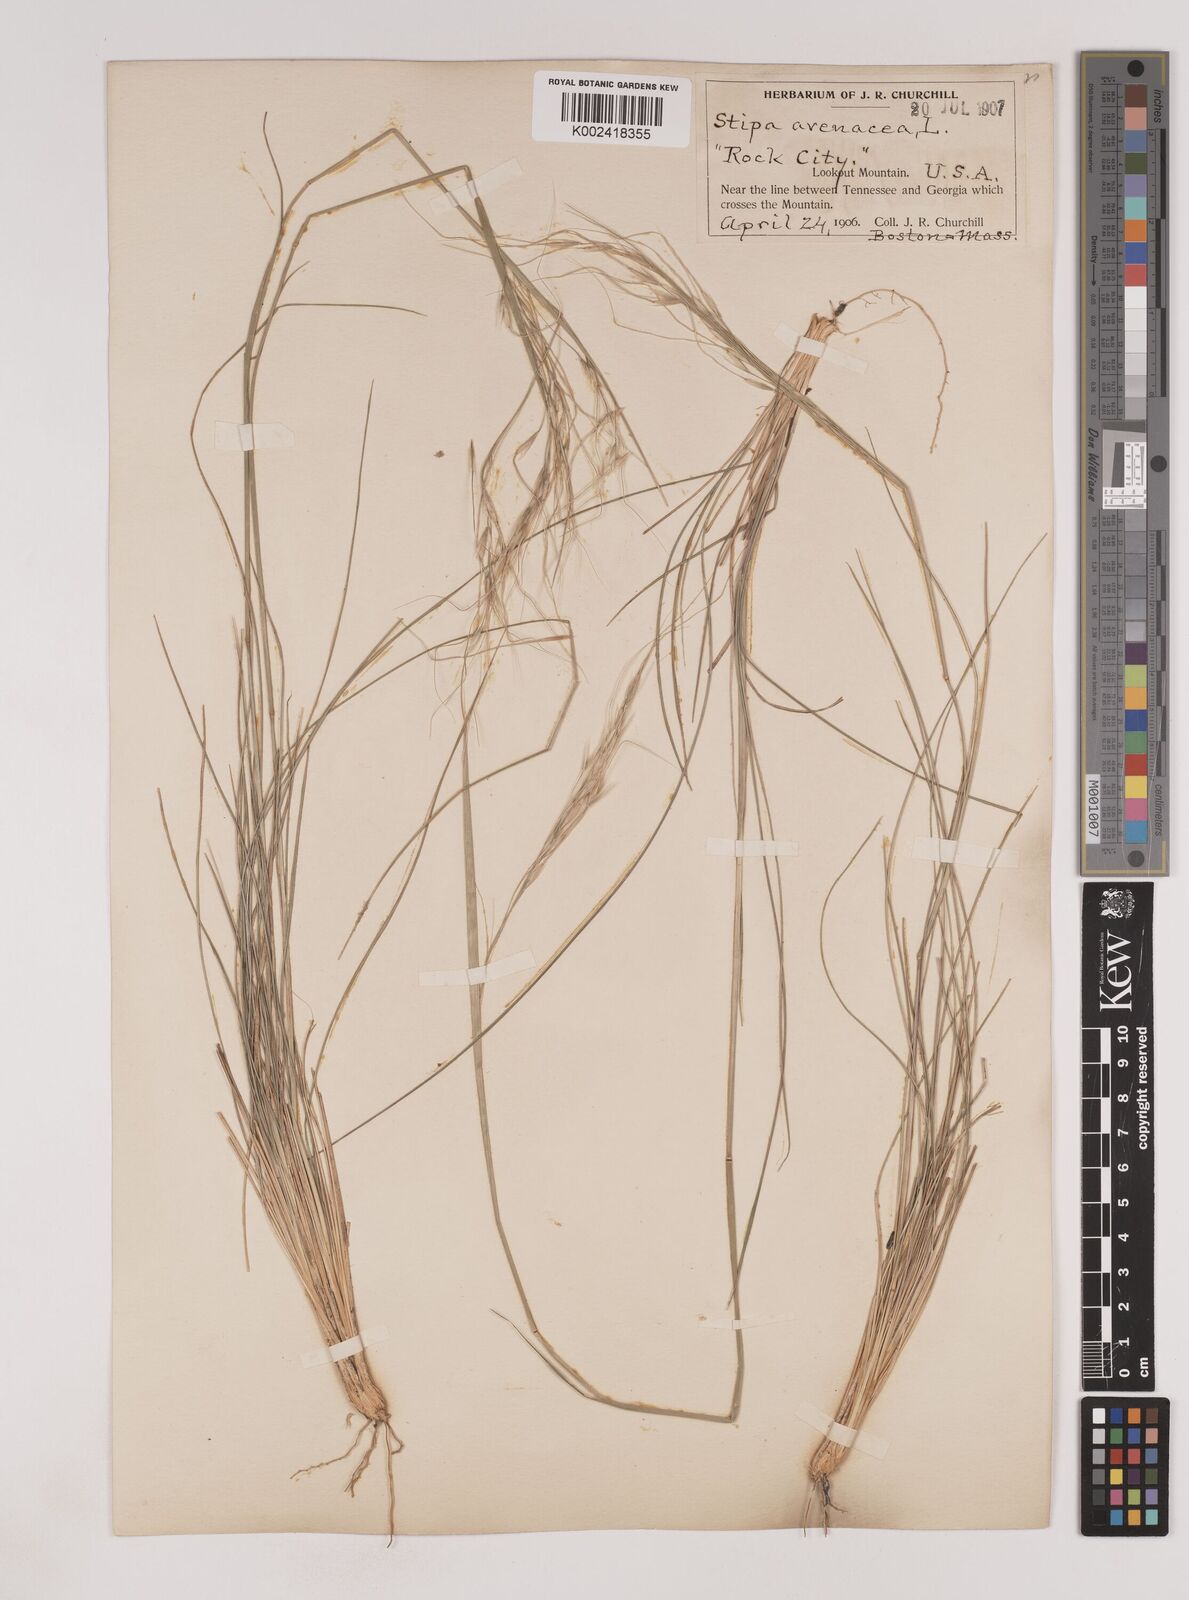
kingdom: Plantae
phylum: Tracheophyta
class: Liliopsida
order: Poales
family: Poaceae
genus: Piptochaetium
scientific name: Piptochaetium avenaceum
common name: Black bunchgrass
